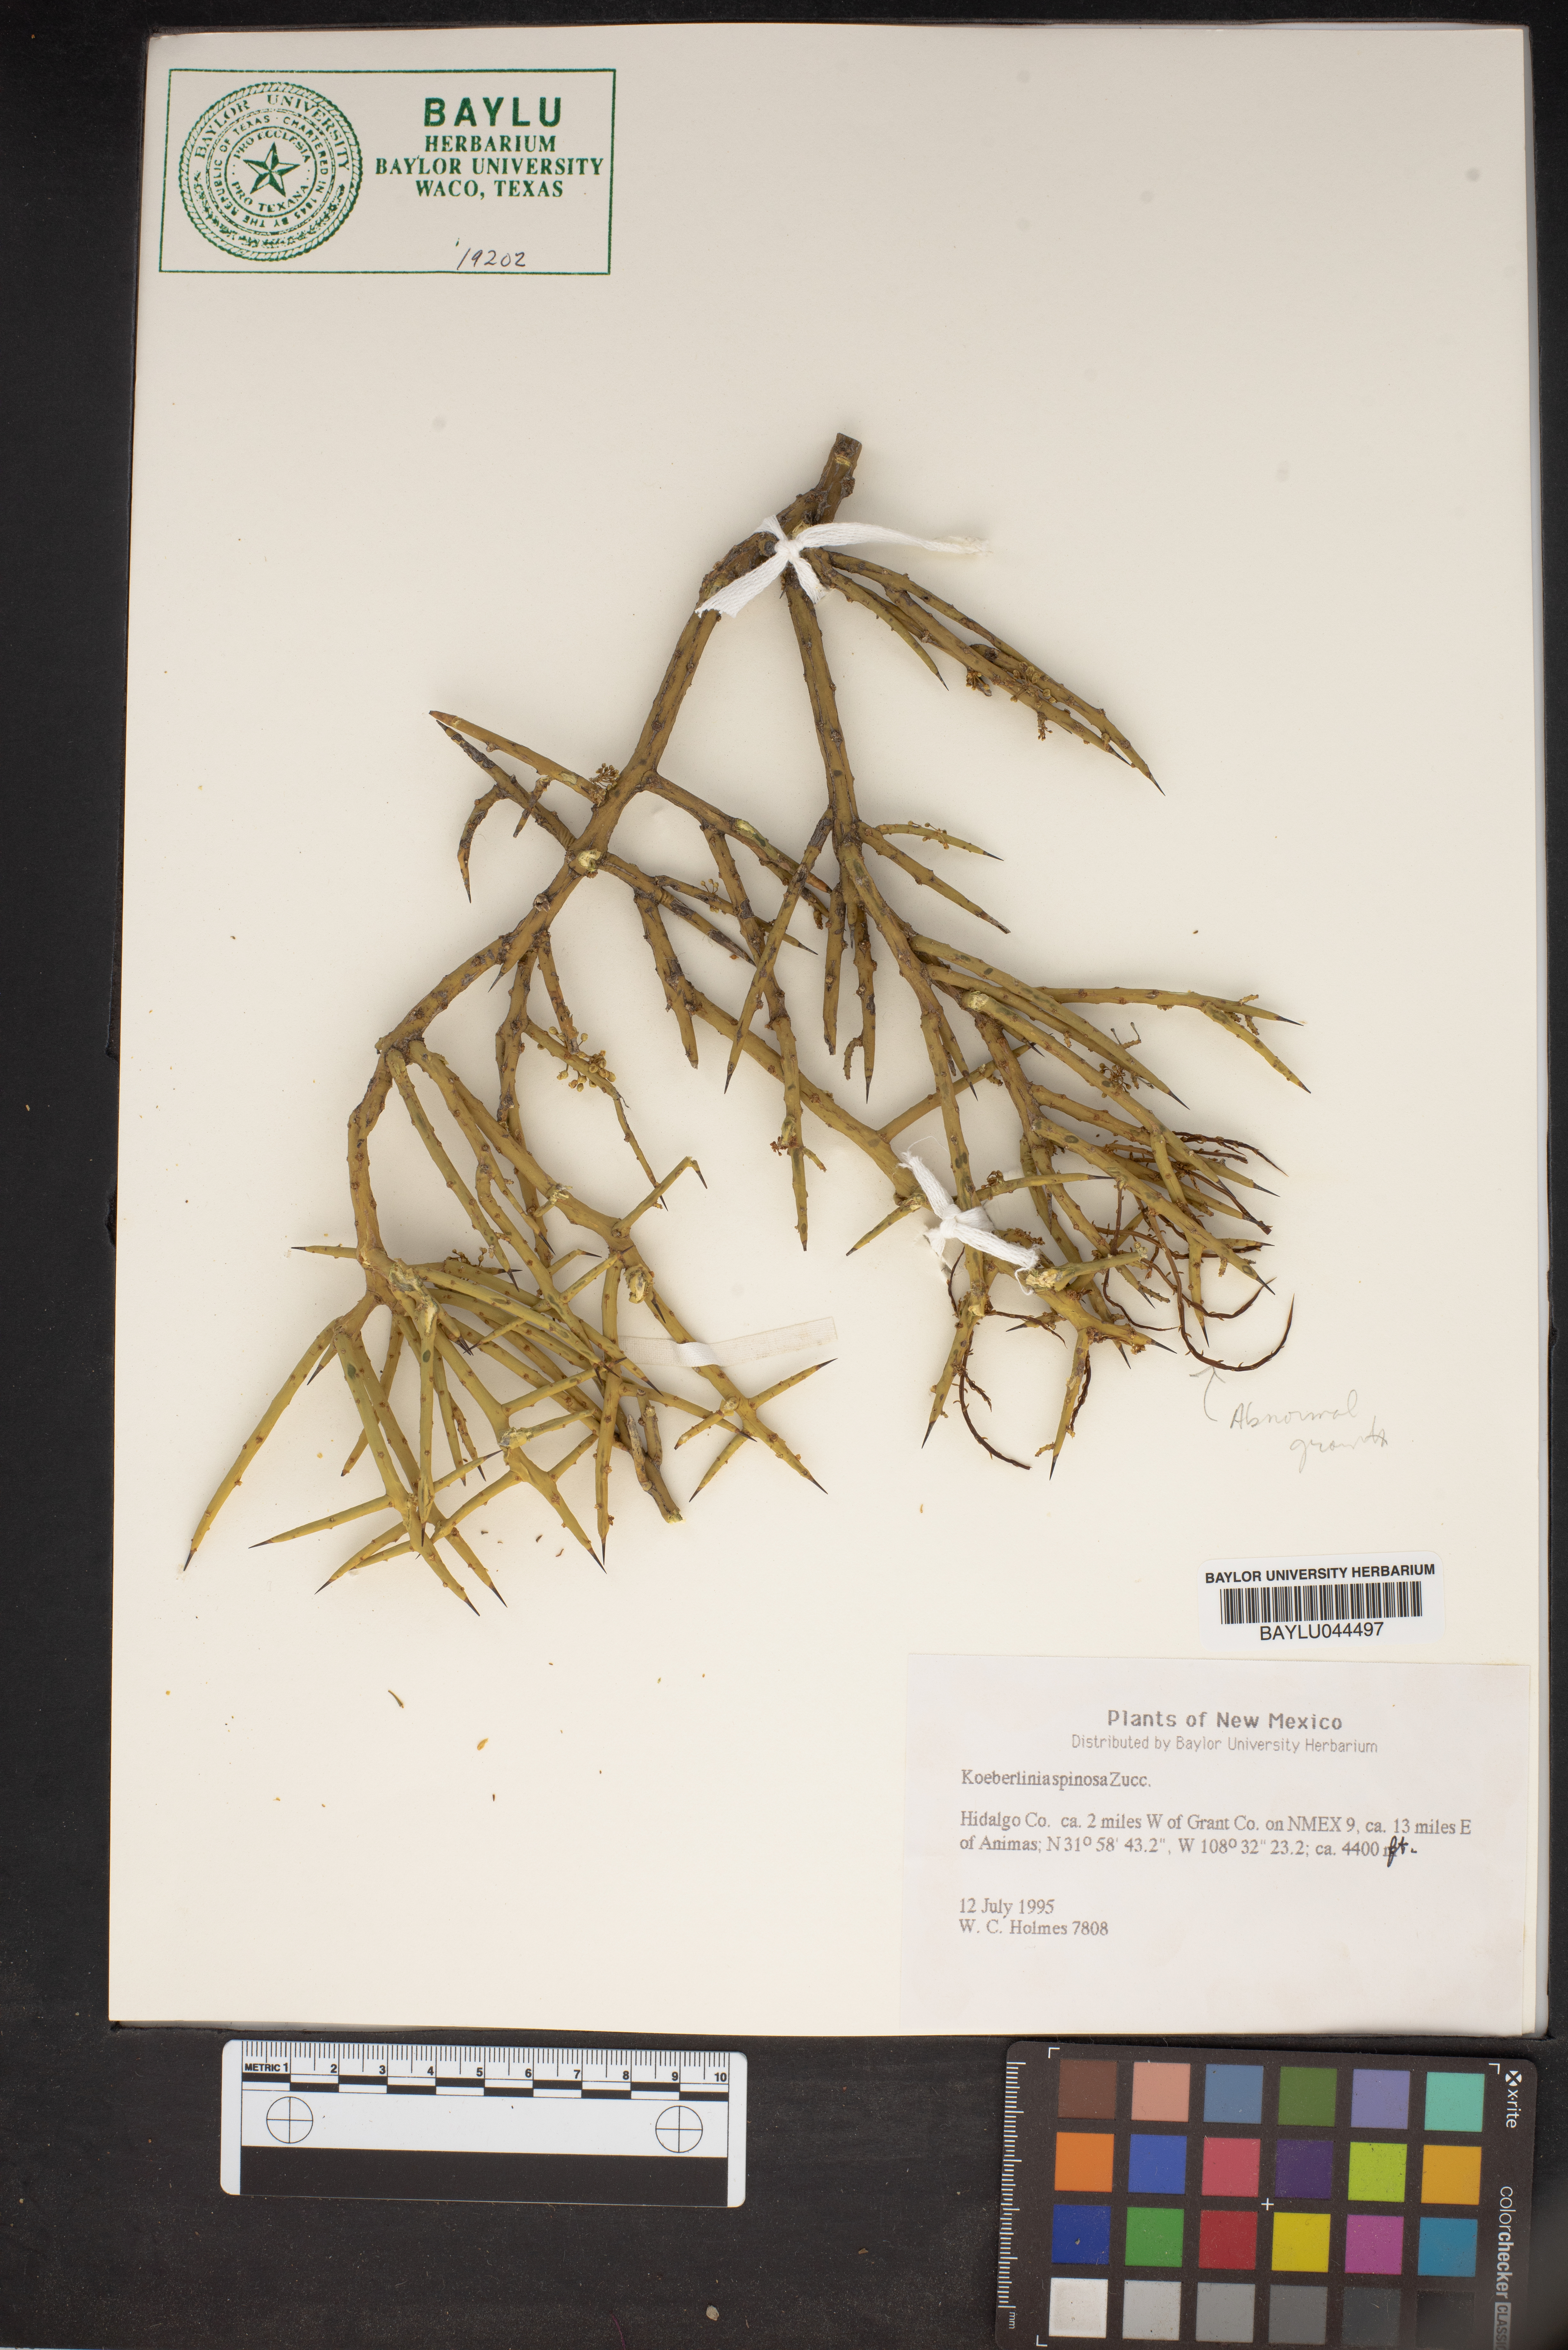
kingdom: Plantae
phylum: Tracheophyta
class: Magnoliopsida
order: Brassicales
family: Koeberliniaceae
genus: Koeberlinia
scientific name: Koeberlinia spinosa
